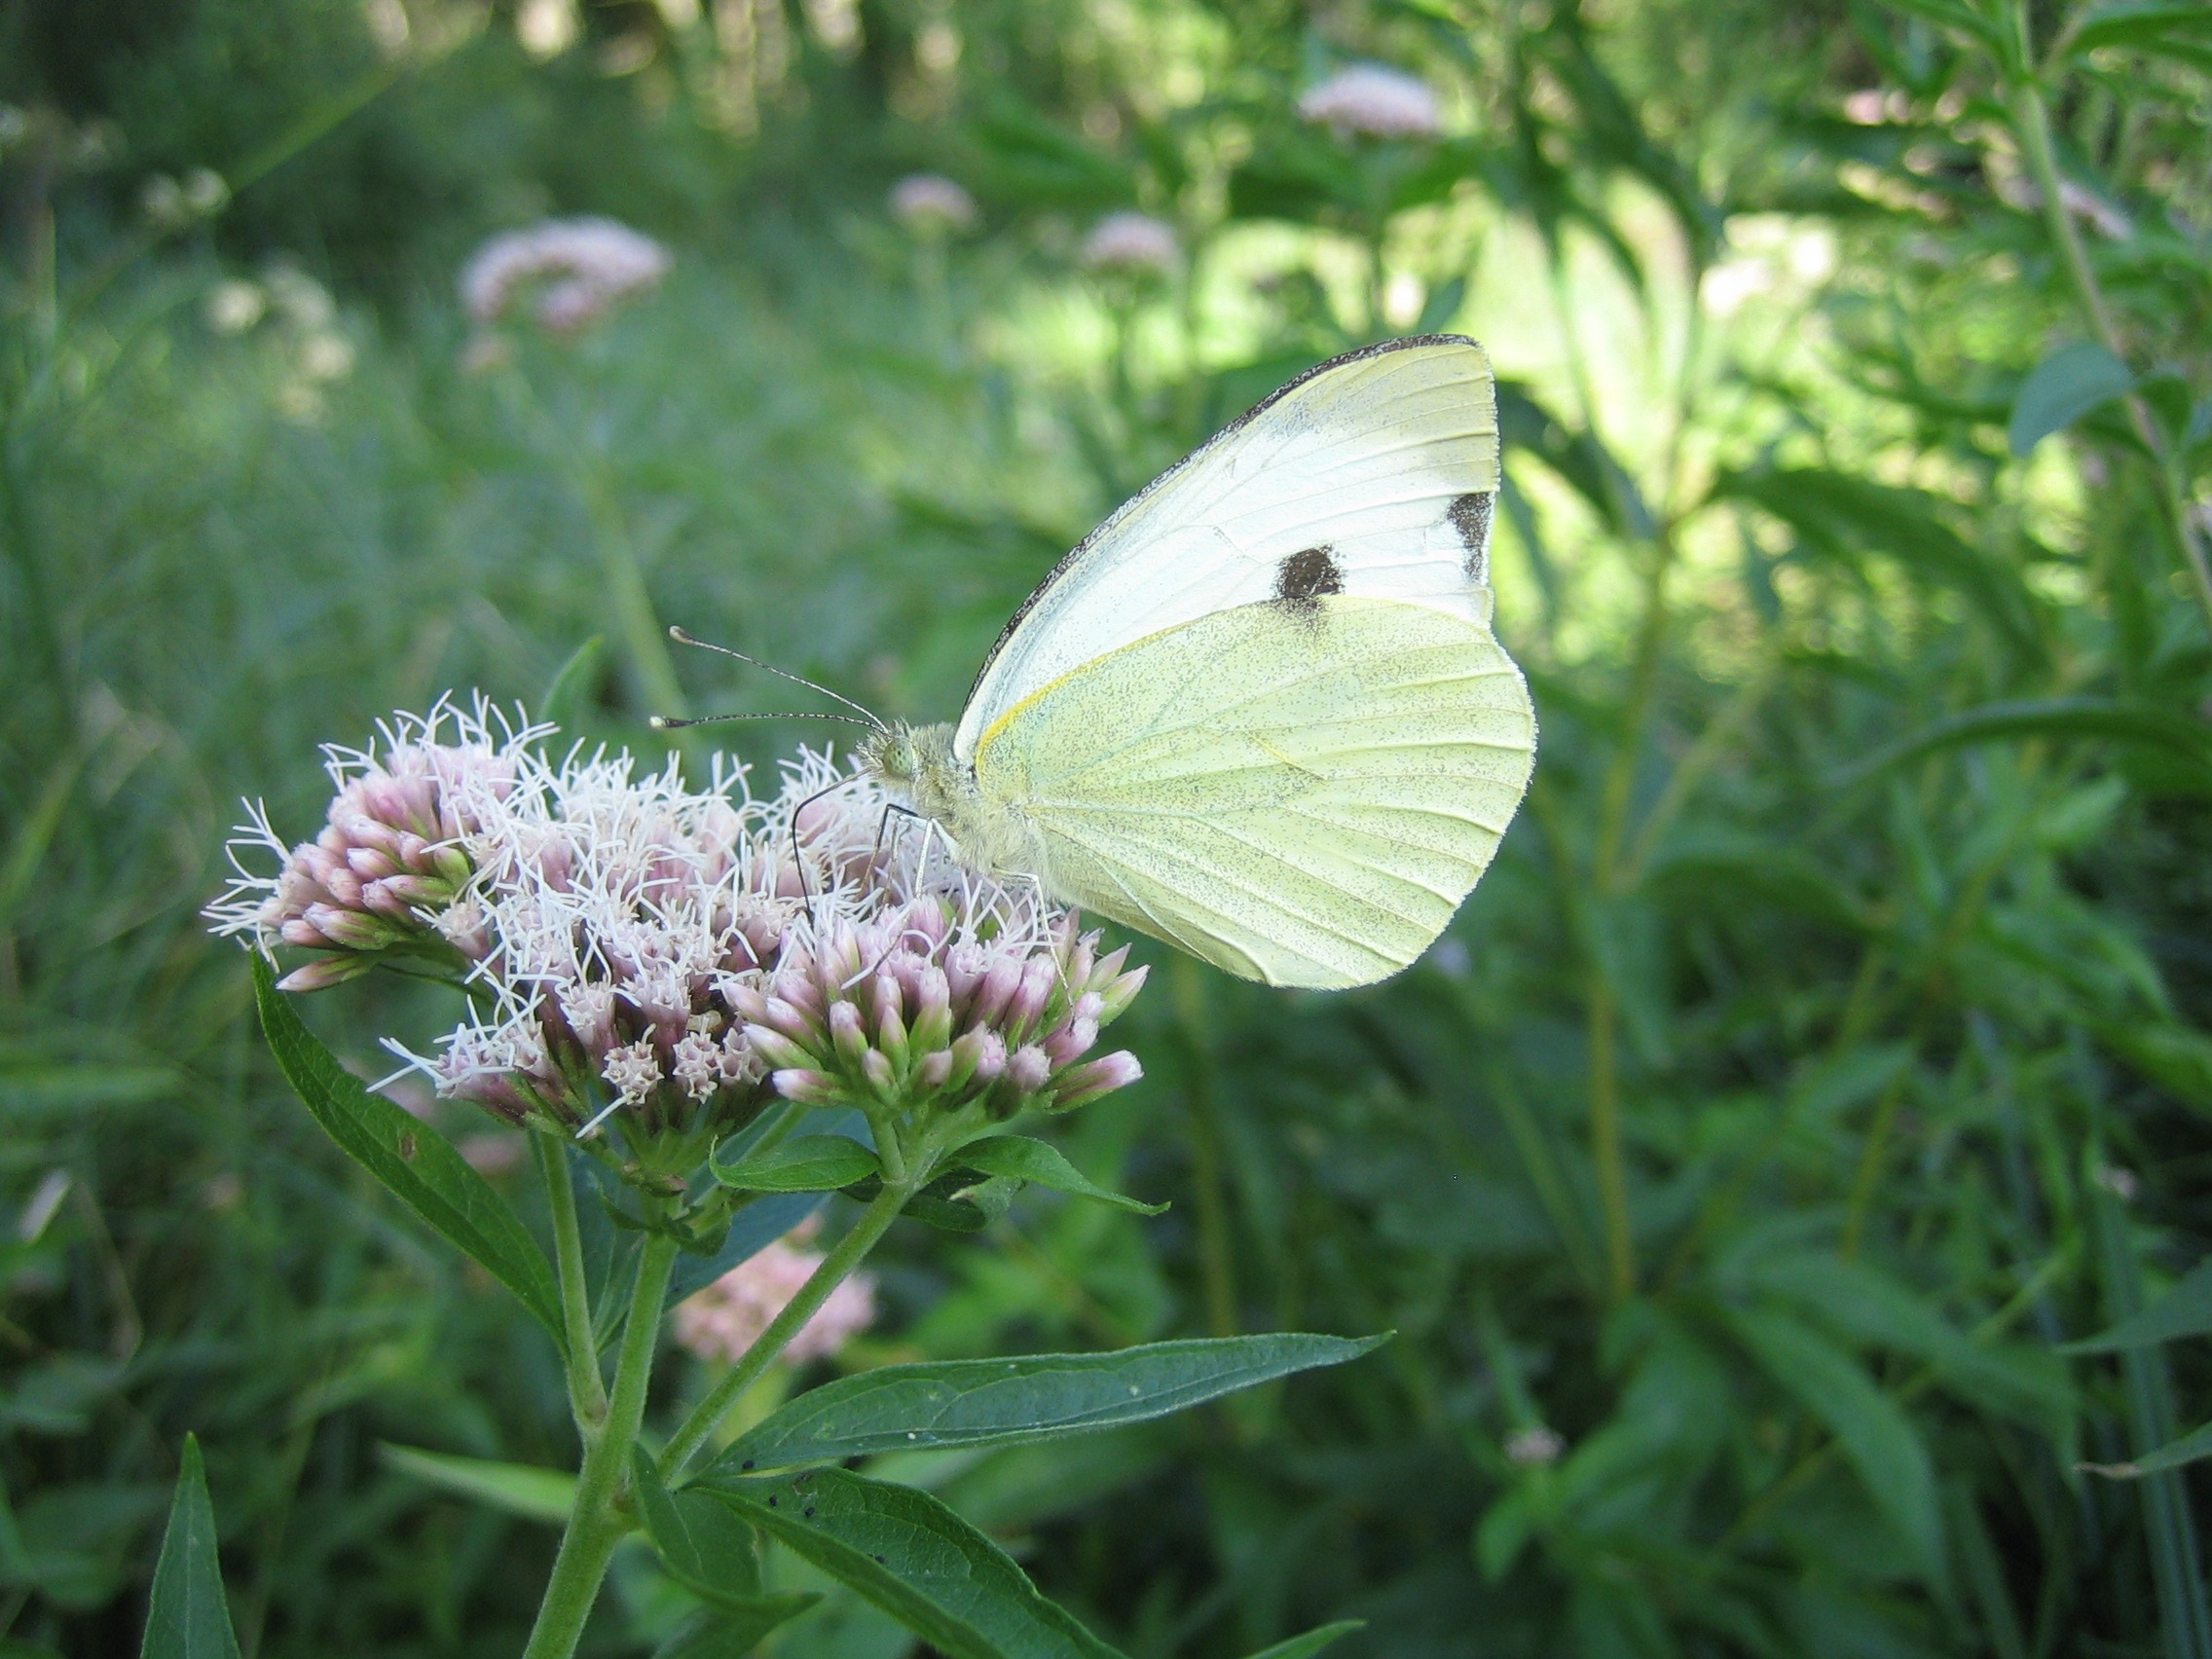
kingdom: Animalia
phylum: Arthropoda
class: Insecta
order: Lepidoptera
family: Pieridae
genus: Pieris
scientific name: Pieris brassicae
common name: Stor kålsommerfugl
